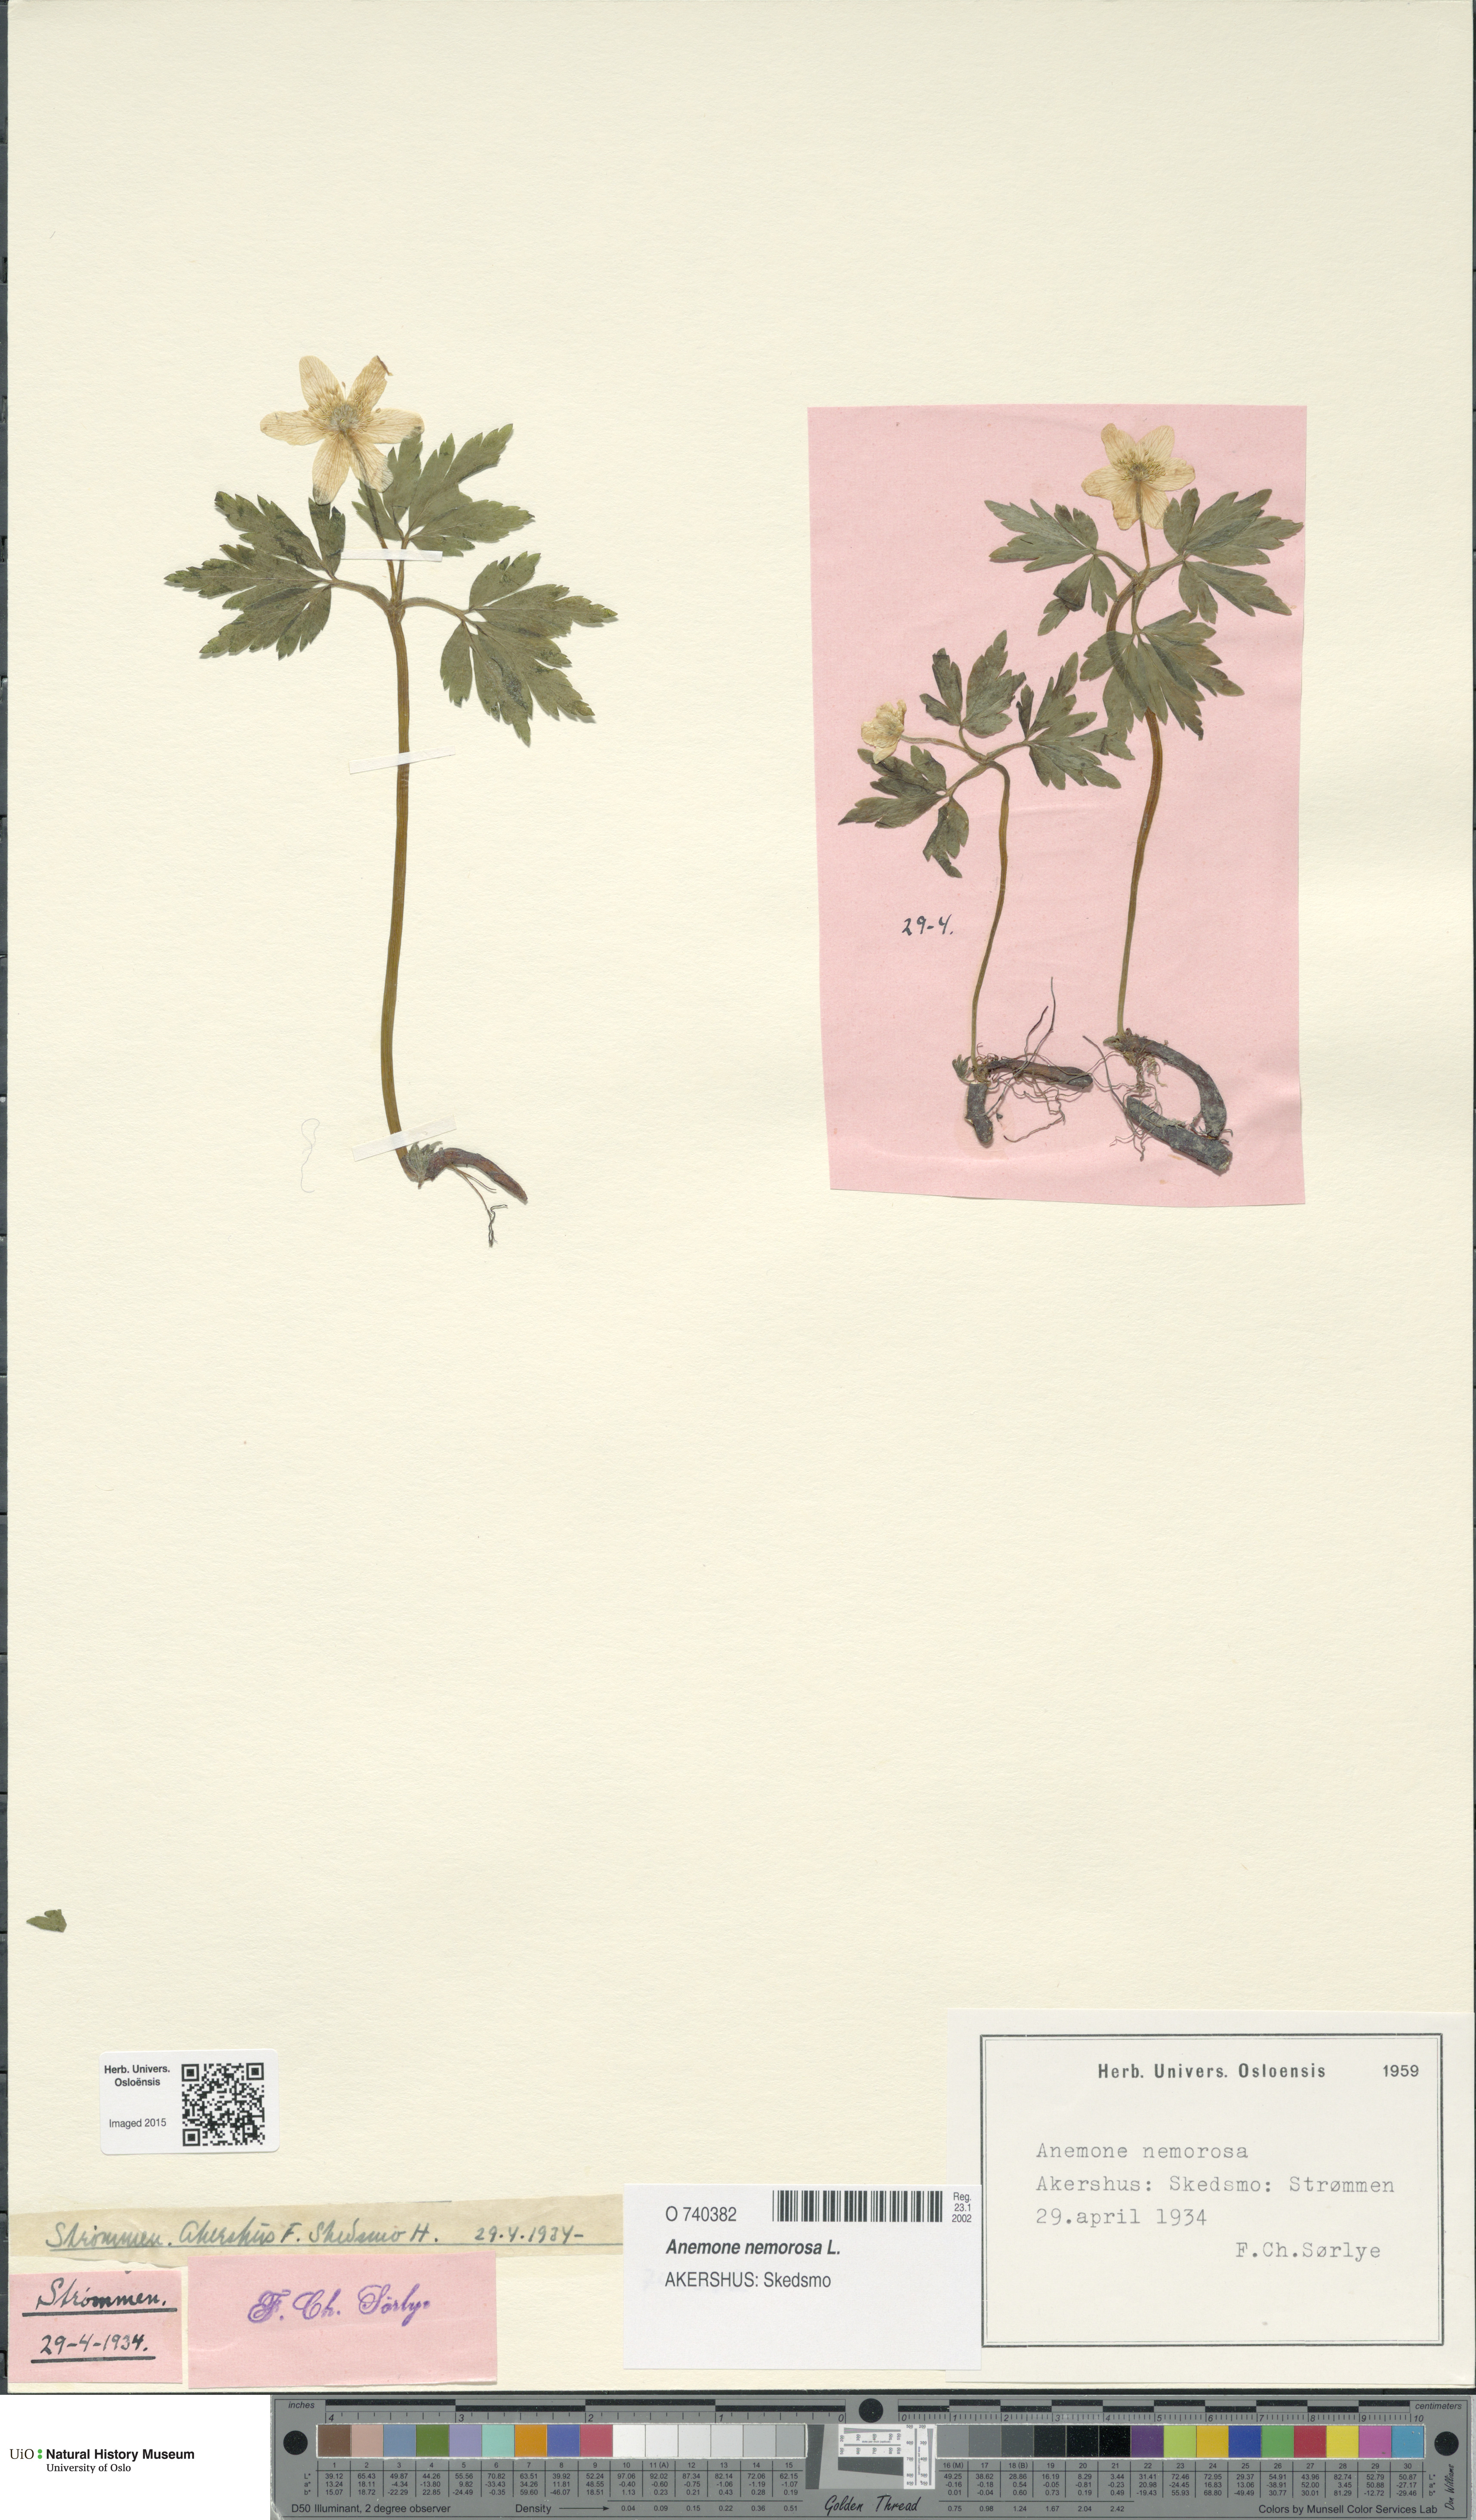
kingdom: Plantae
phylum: Tracheophyta
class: Magnoliopsida
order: Ranunculales
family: Ranunculaceae
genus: Anemone
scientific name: Anemone nemorosa
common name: Wood anemone
